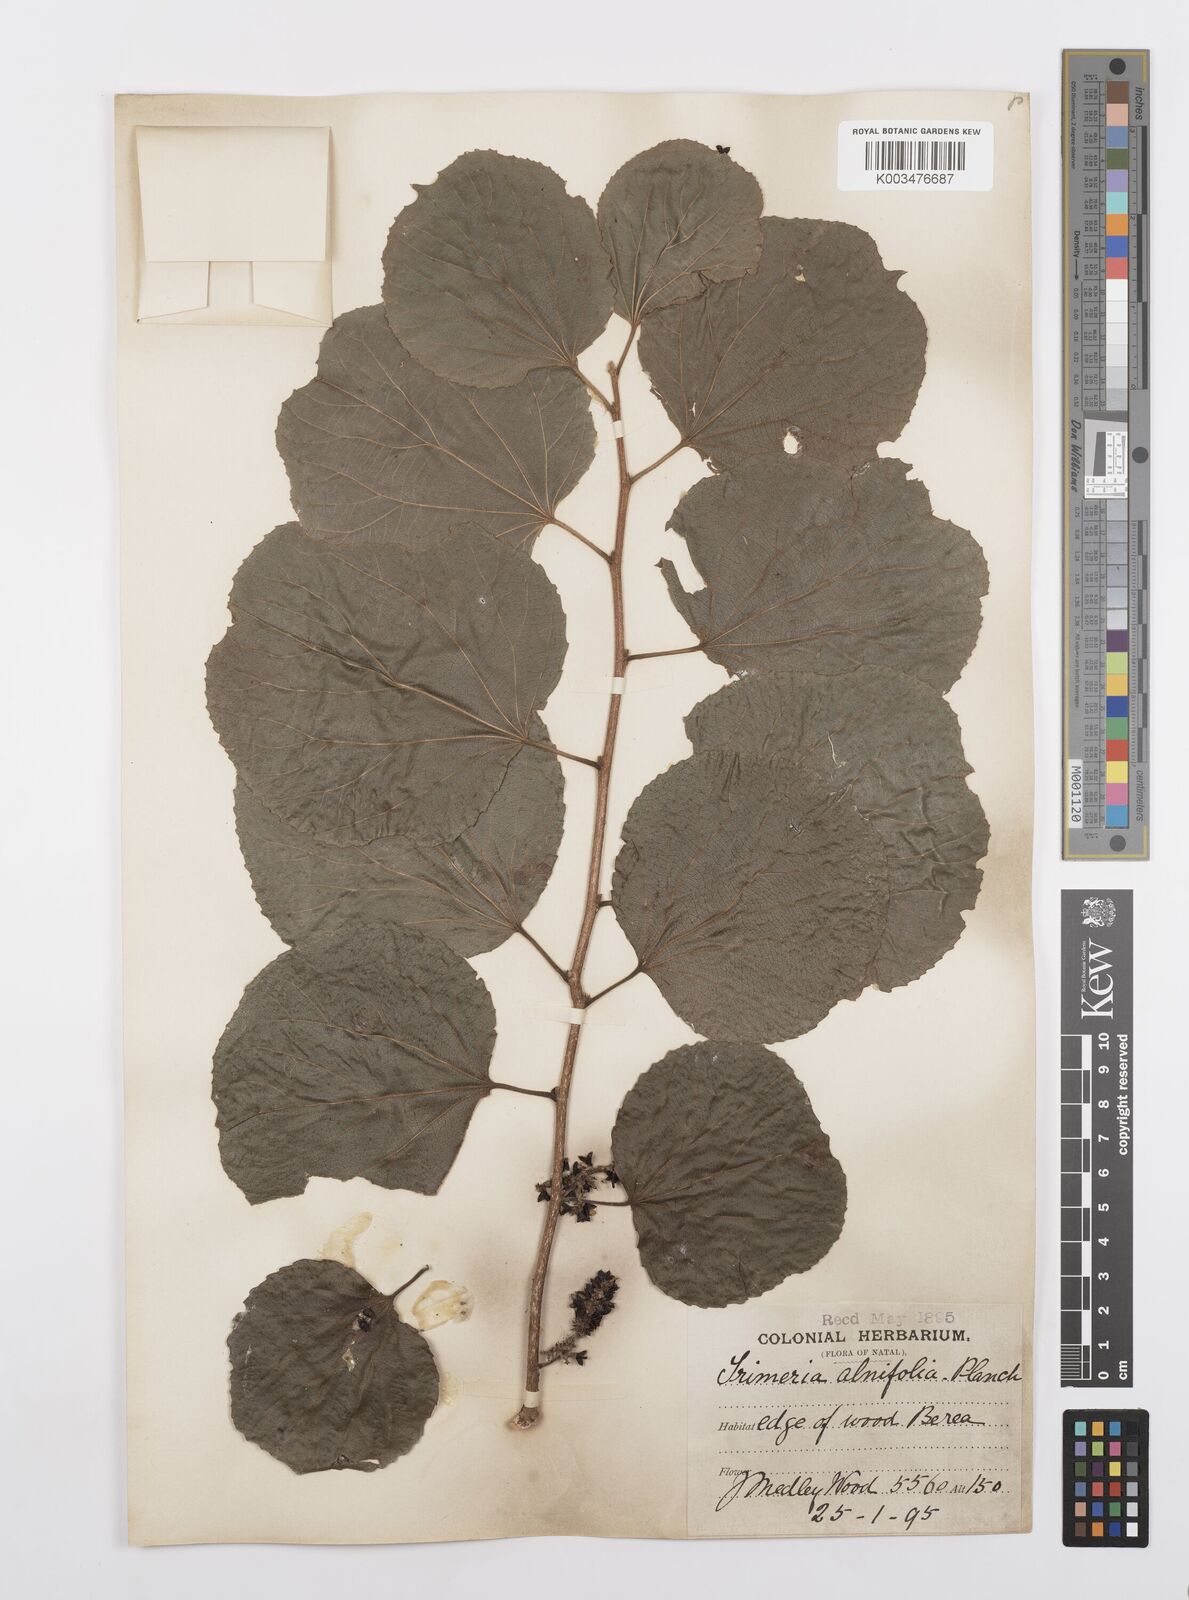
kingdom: Plantae
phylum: Tracheophyta
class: Magnoliopsida
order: Malpighiales
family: Salicaceae
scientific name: Salicaceae
